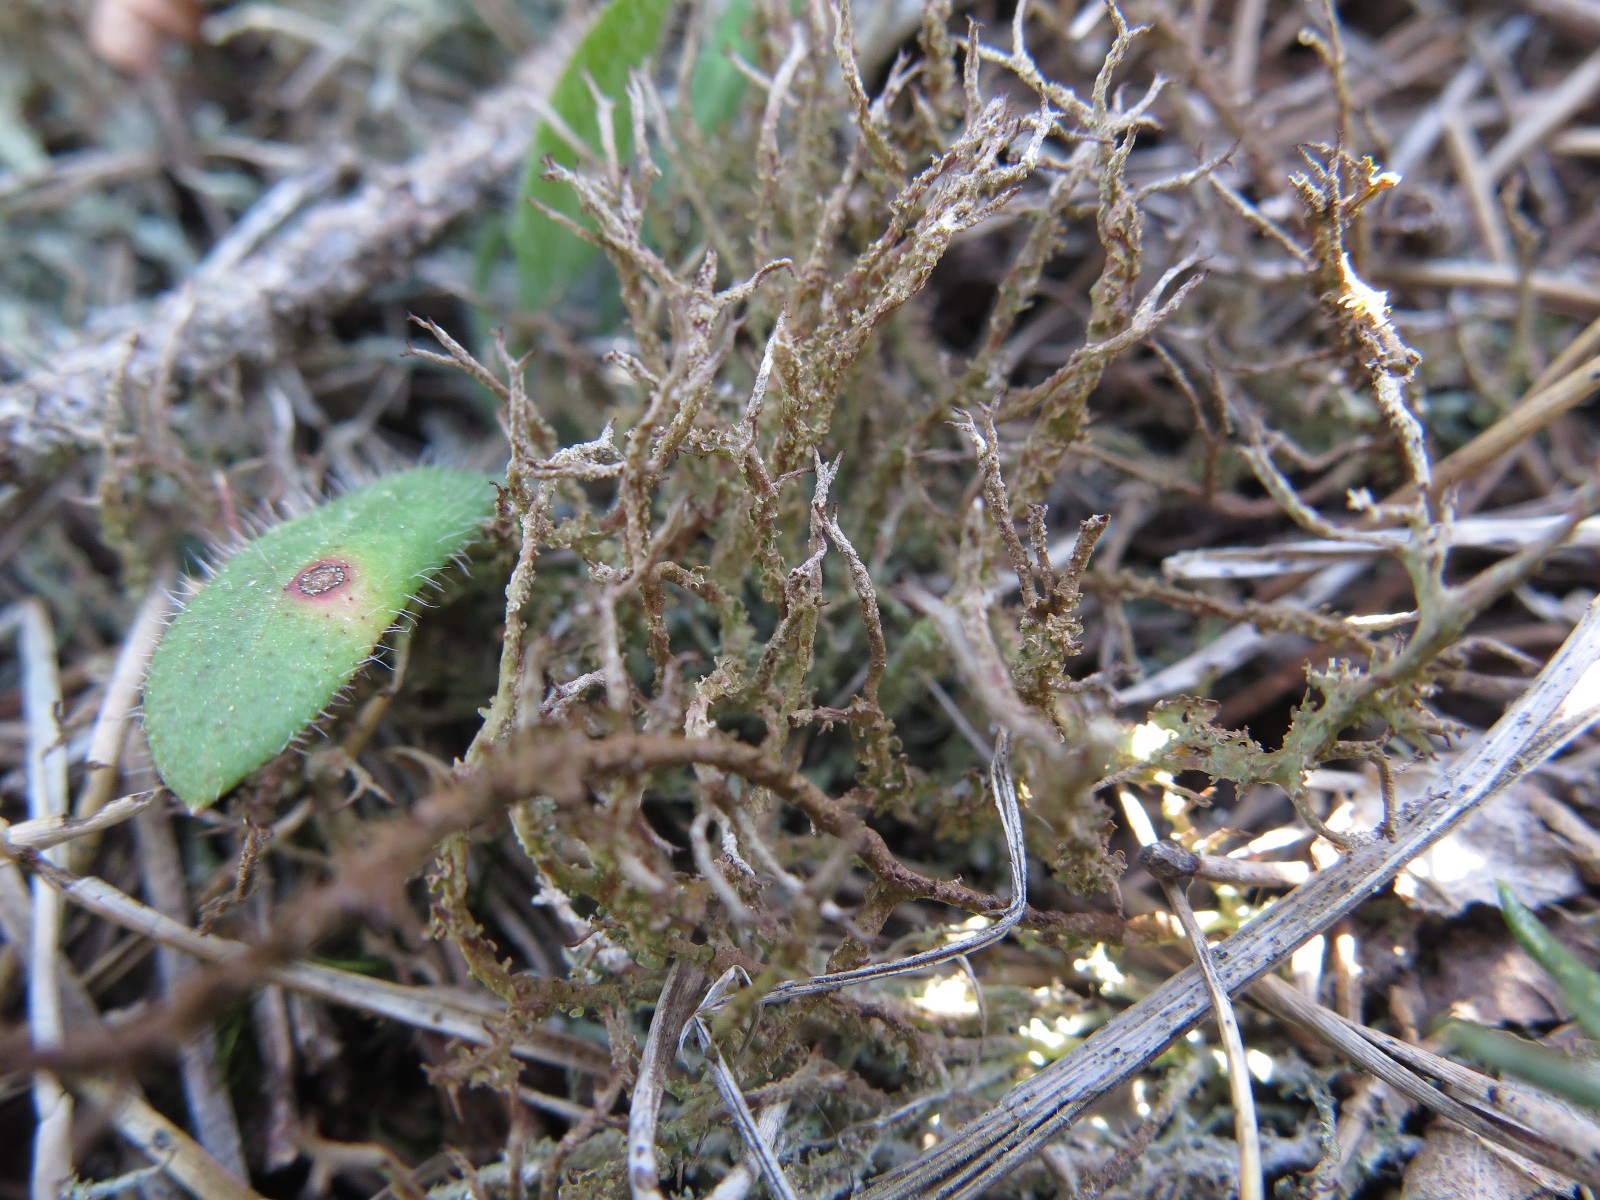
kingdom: Fungi
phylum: Ascomycota
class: Lecanoromycetes
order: Lecanorales
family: Cladoniaceae
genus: Cladonia
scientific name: Cladonia furcata
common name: kløftet bægerlav
